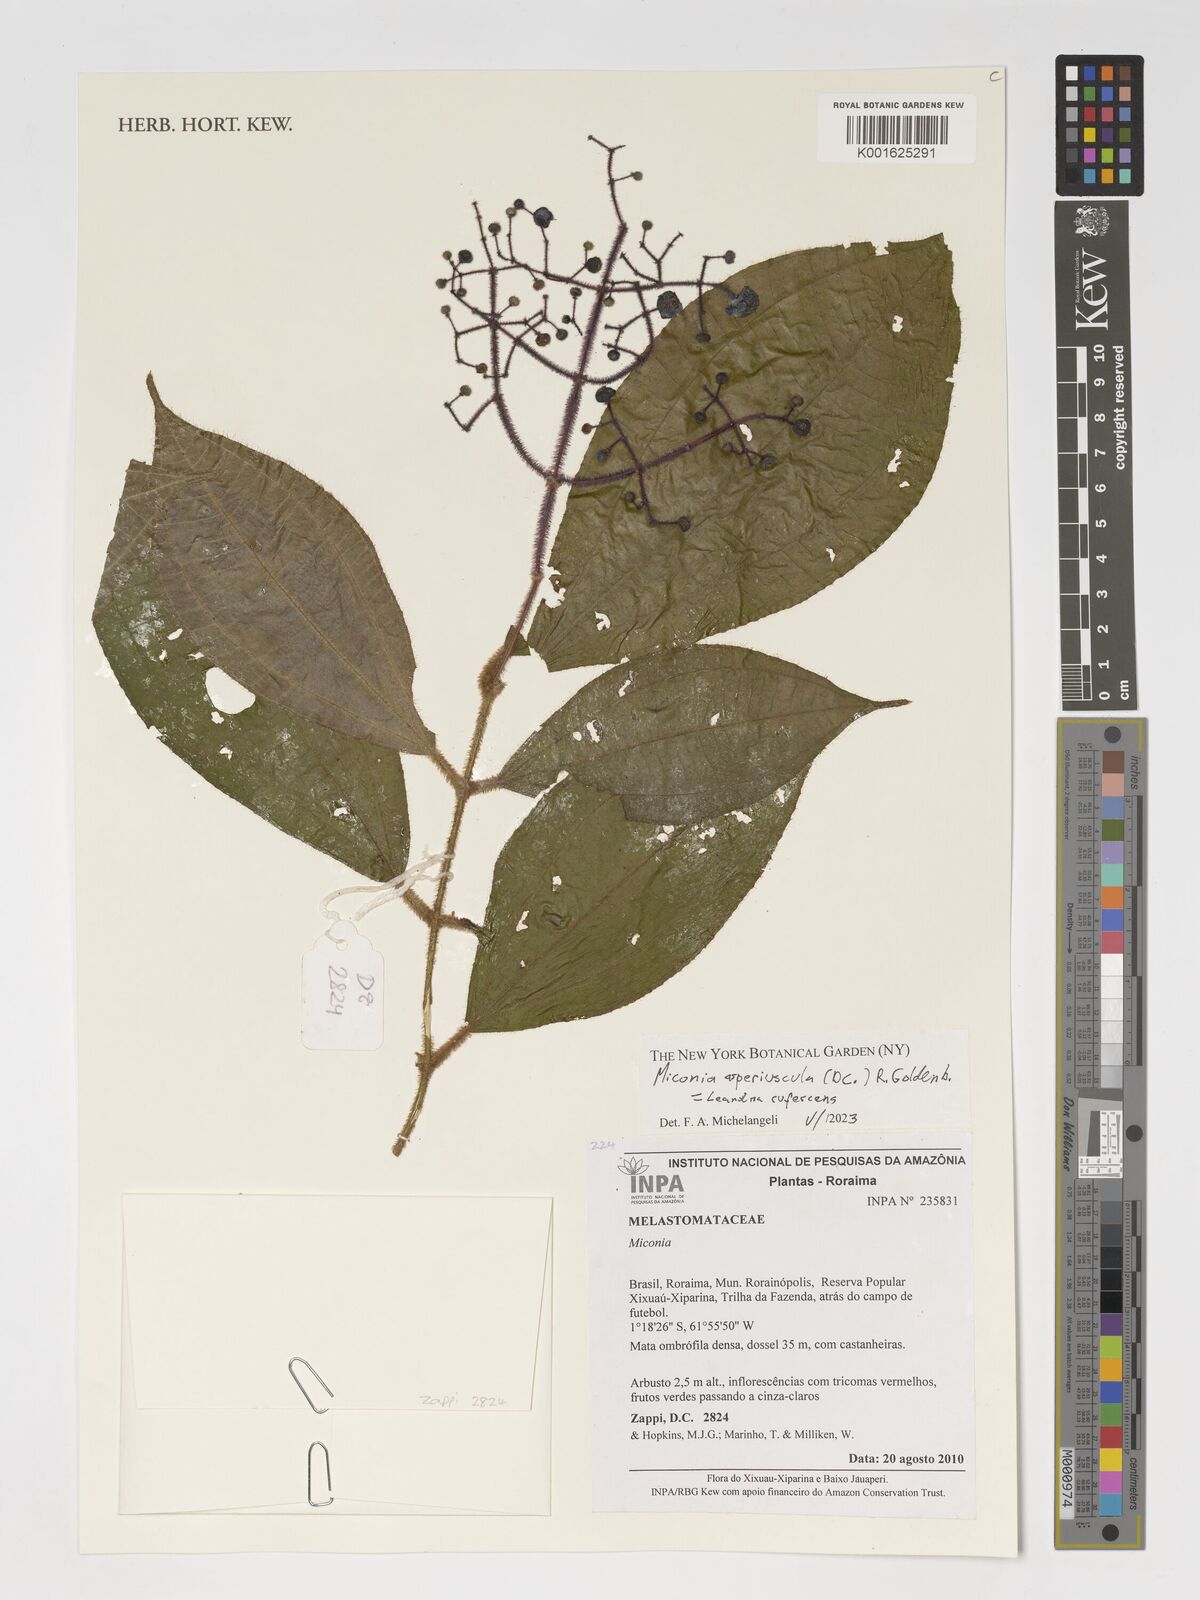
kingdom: Plantae
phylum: Tracheophyta
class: Magnoliopsida
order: Myrtales
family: Melastomataceae
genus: Miconia
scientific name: Miconia
